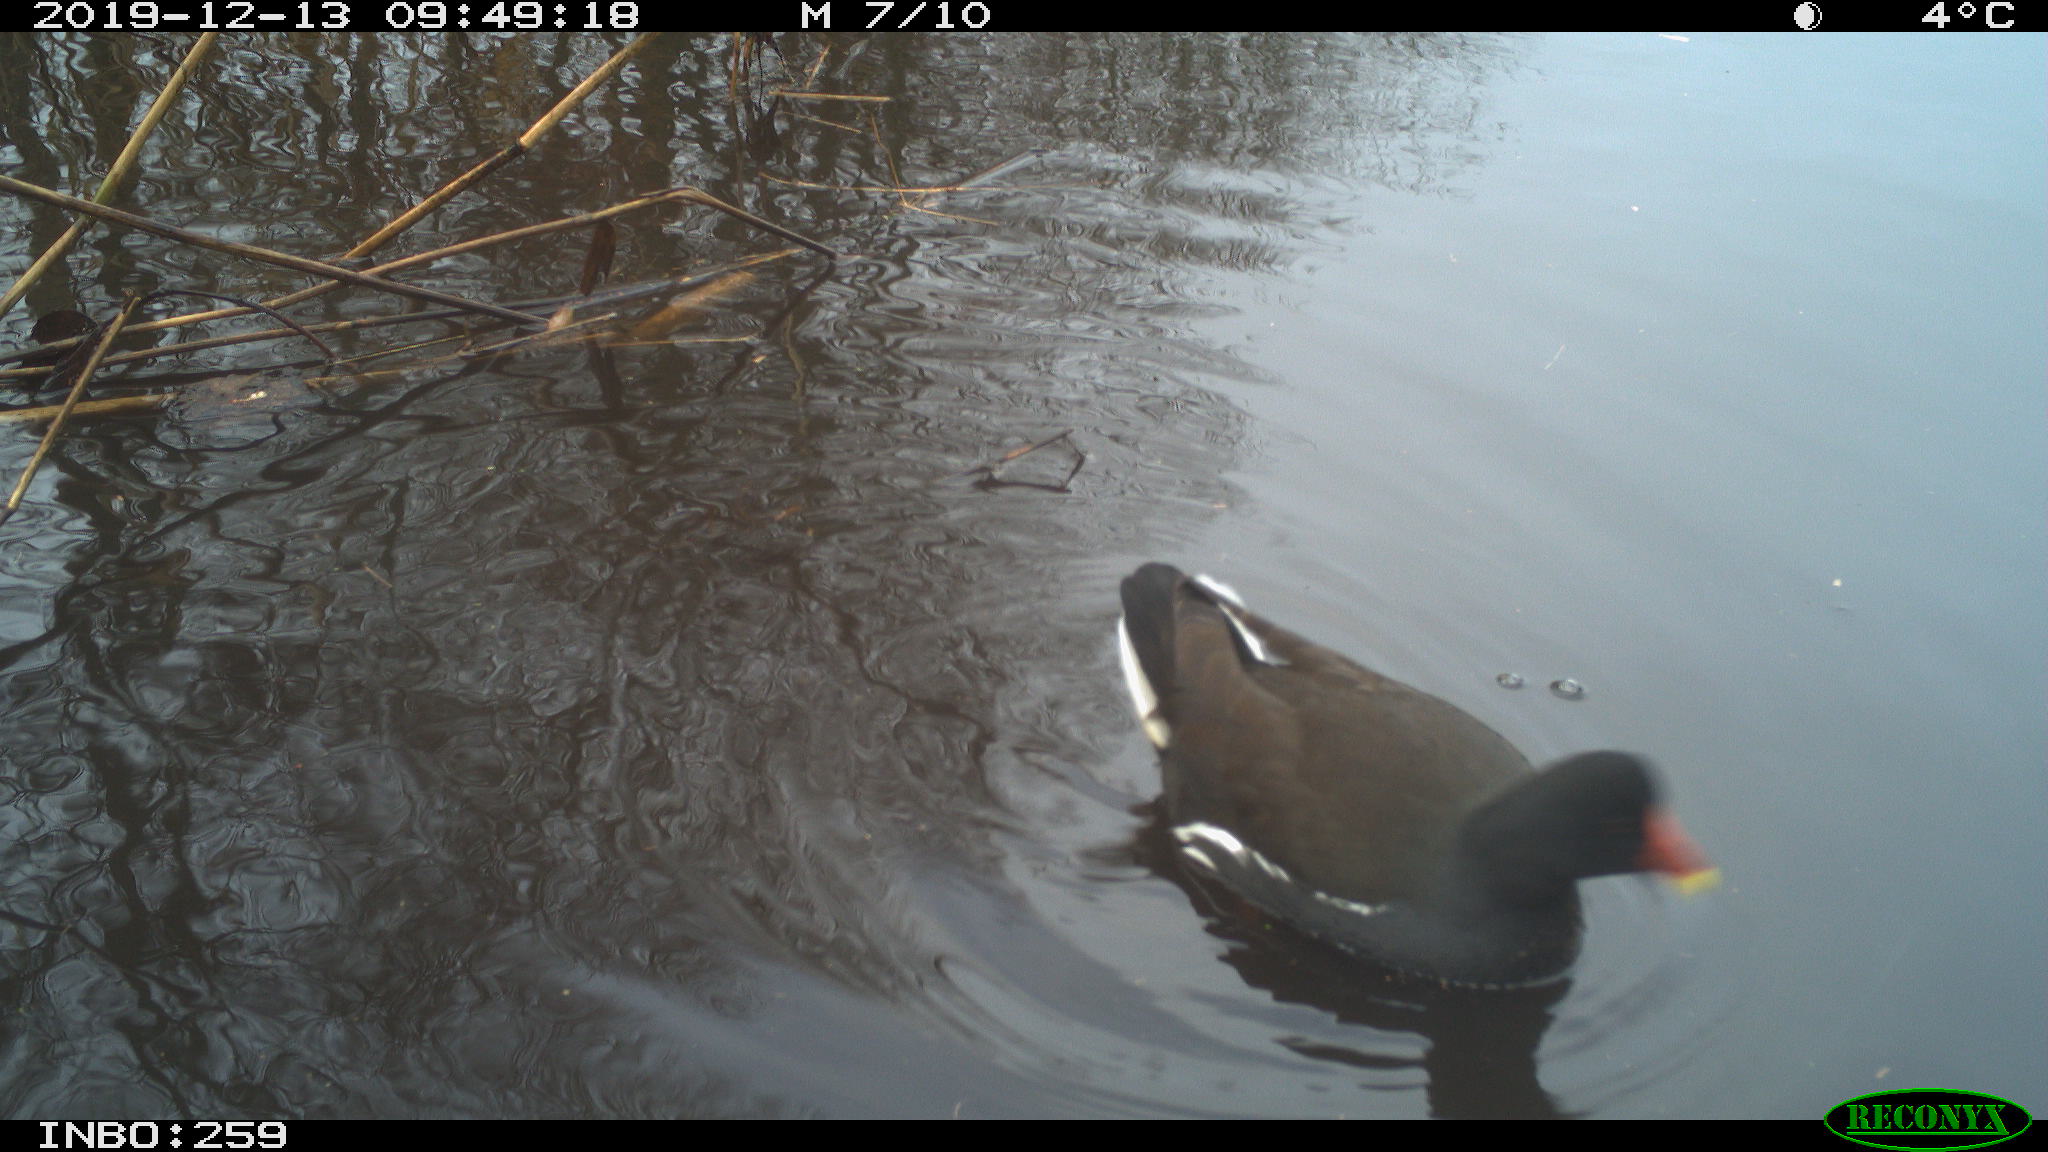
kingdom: Animalia
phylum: Chordata
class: Aves
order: Gruiformes
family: Rallidae
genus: Gallinula
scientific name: Gallinula chloropus
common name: Common moorhen
